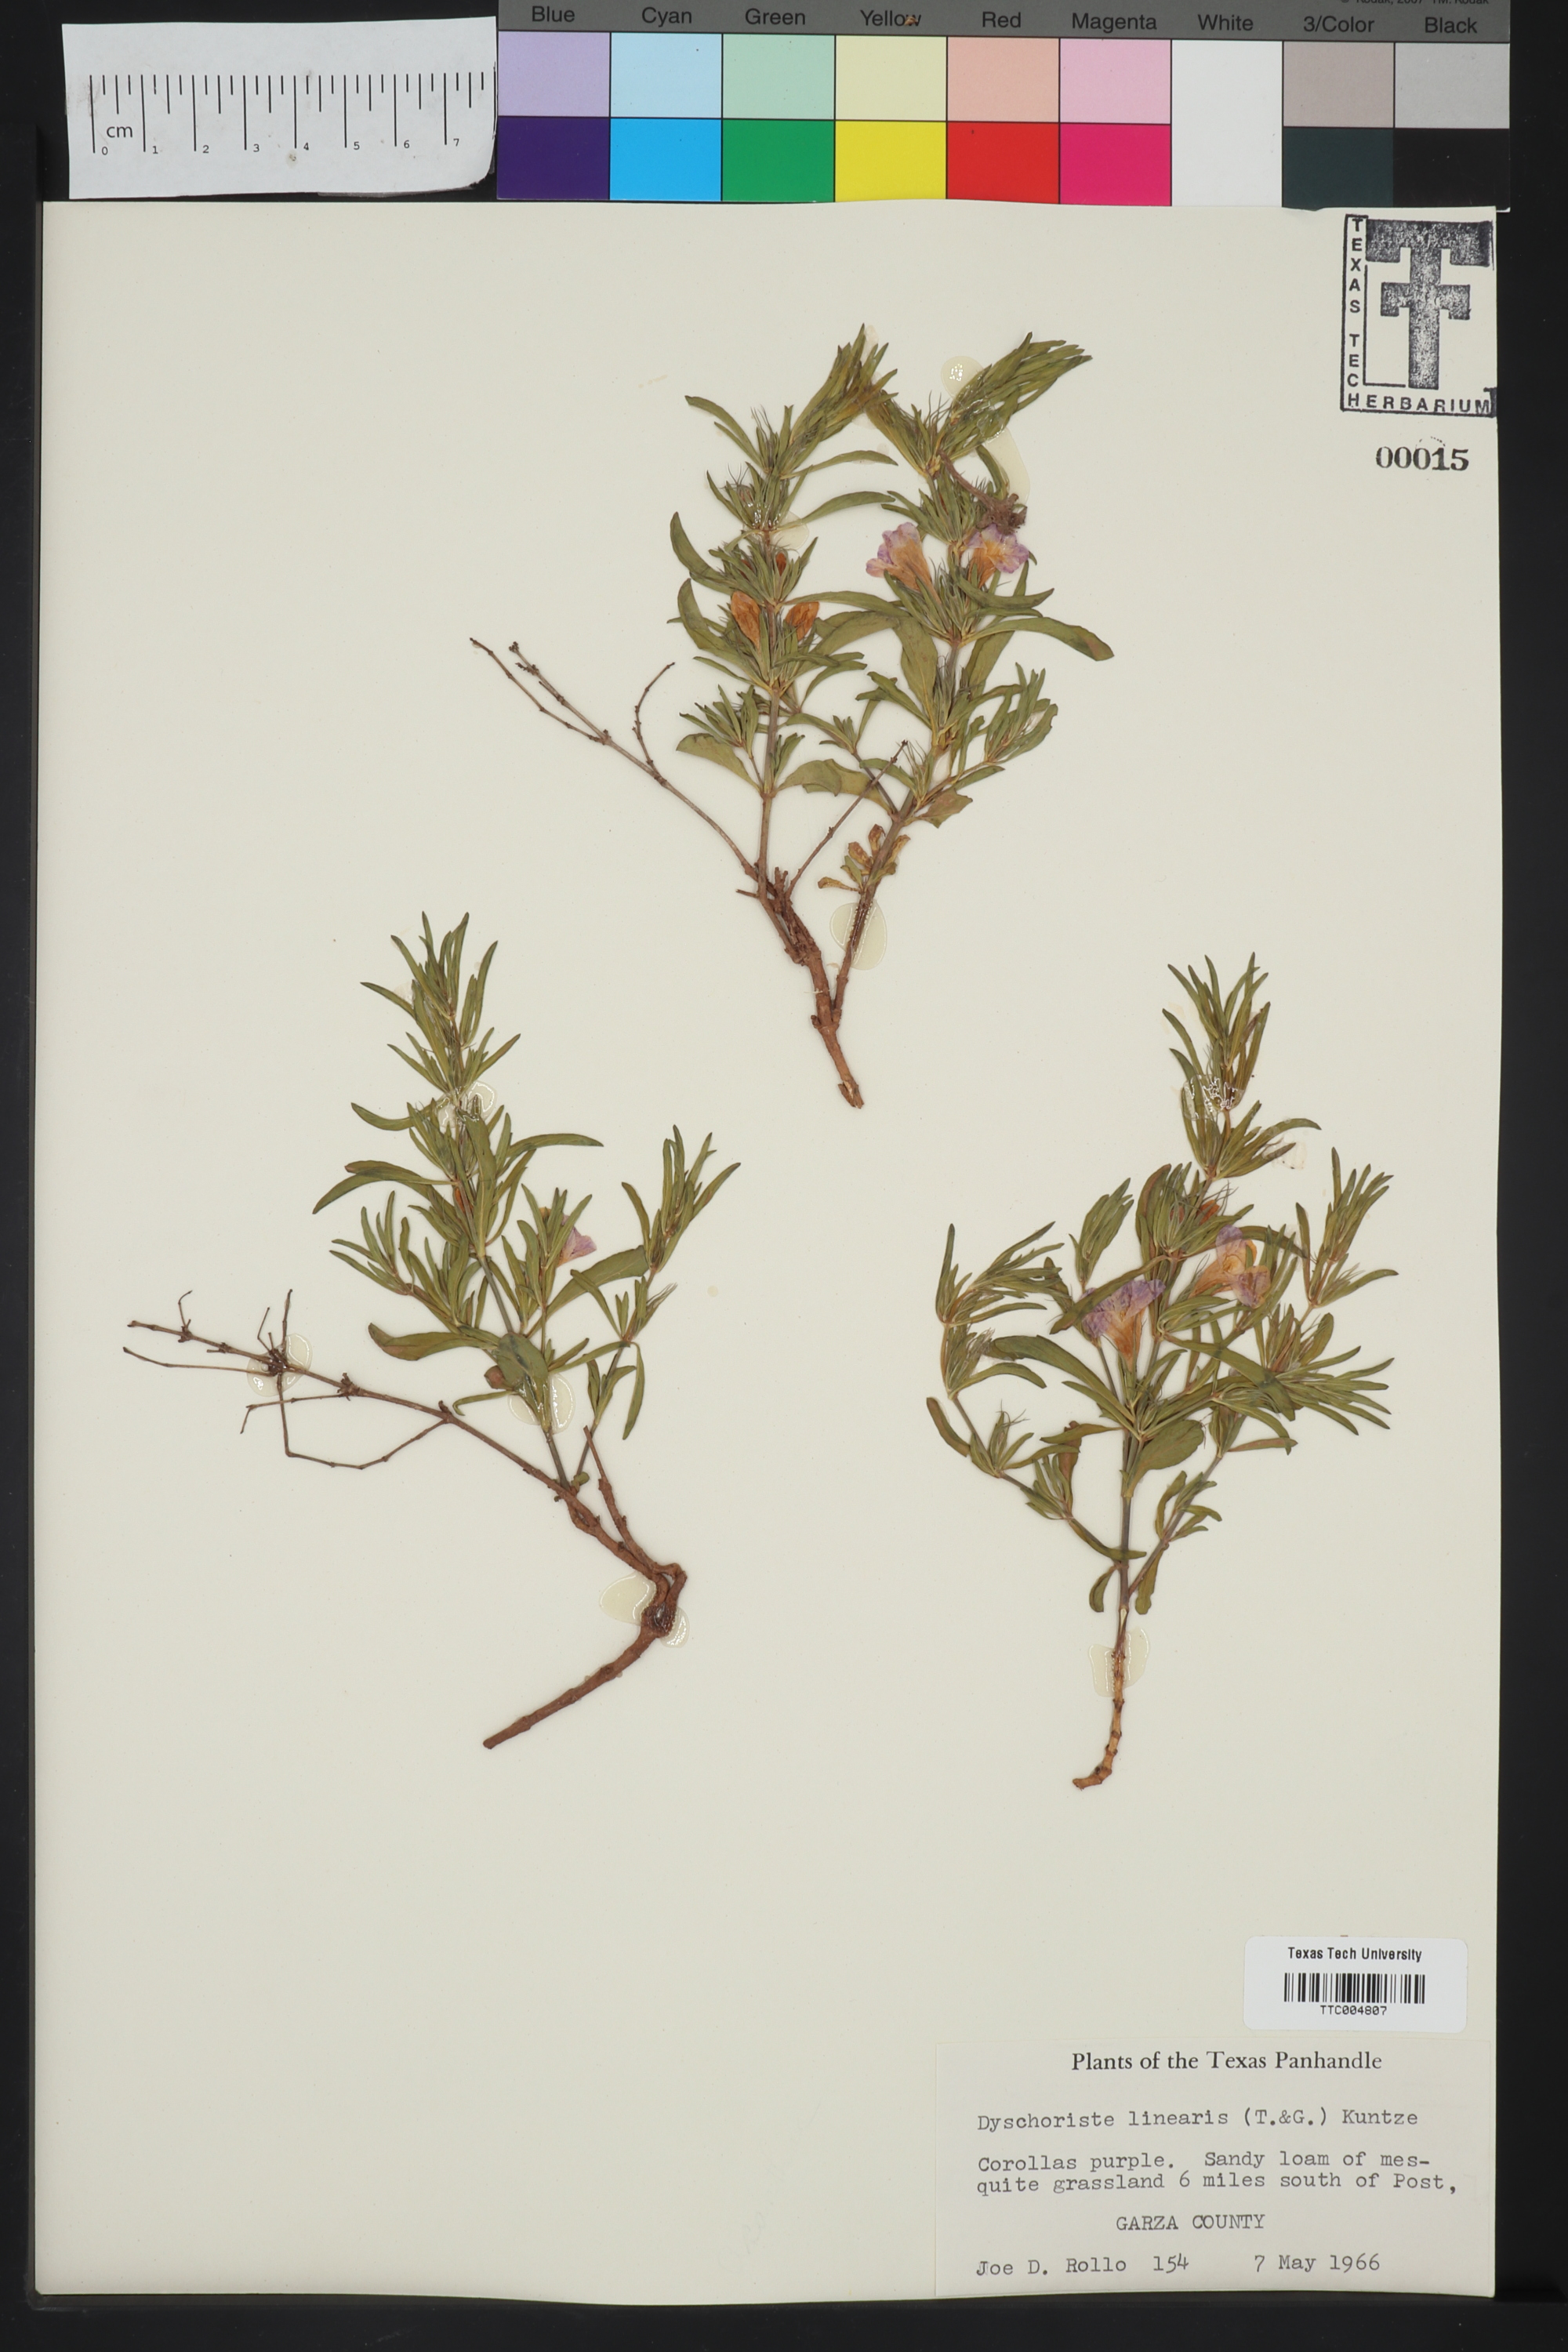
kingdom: Plantae
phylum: Tracheophyta
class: Magnoliopsida
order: Lamiales
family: Acanthaceae
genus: Dyschoriste
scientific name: Dyschoriste linearis
